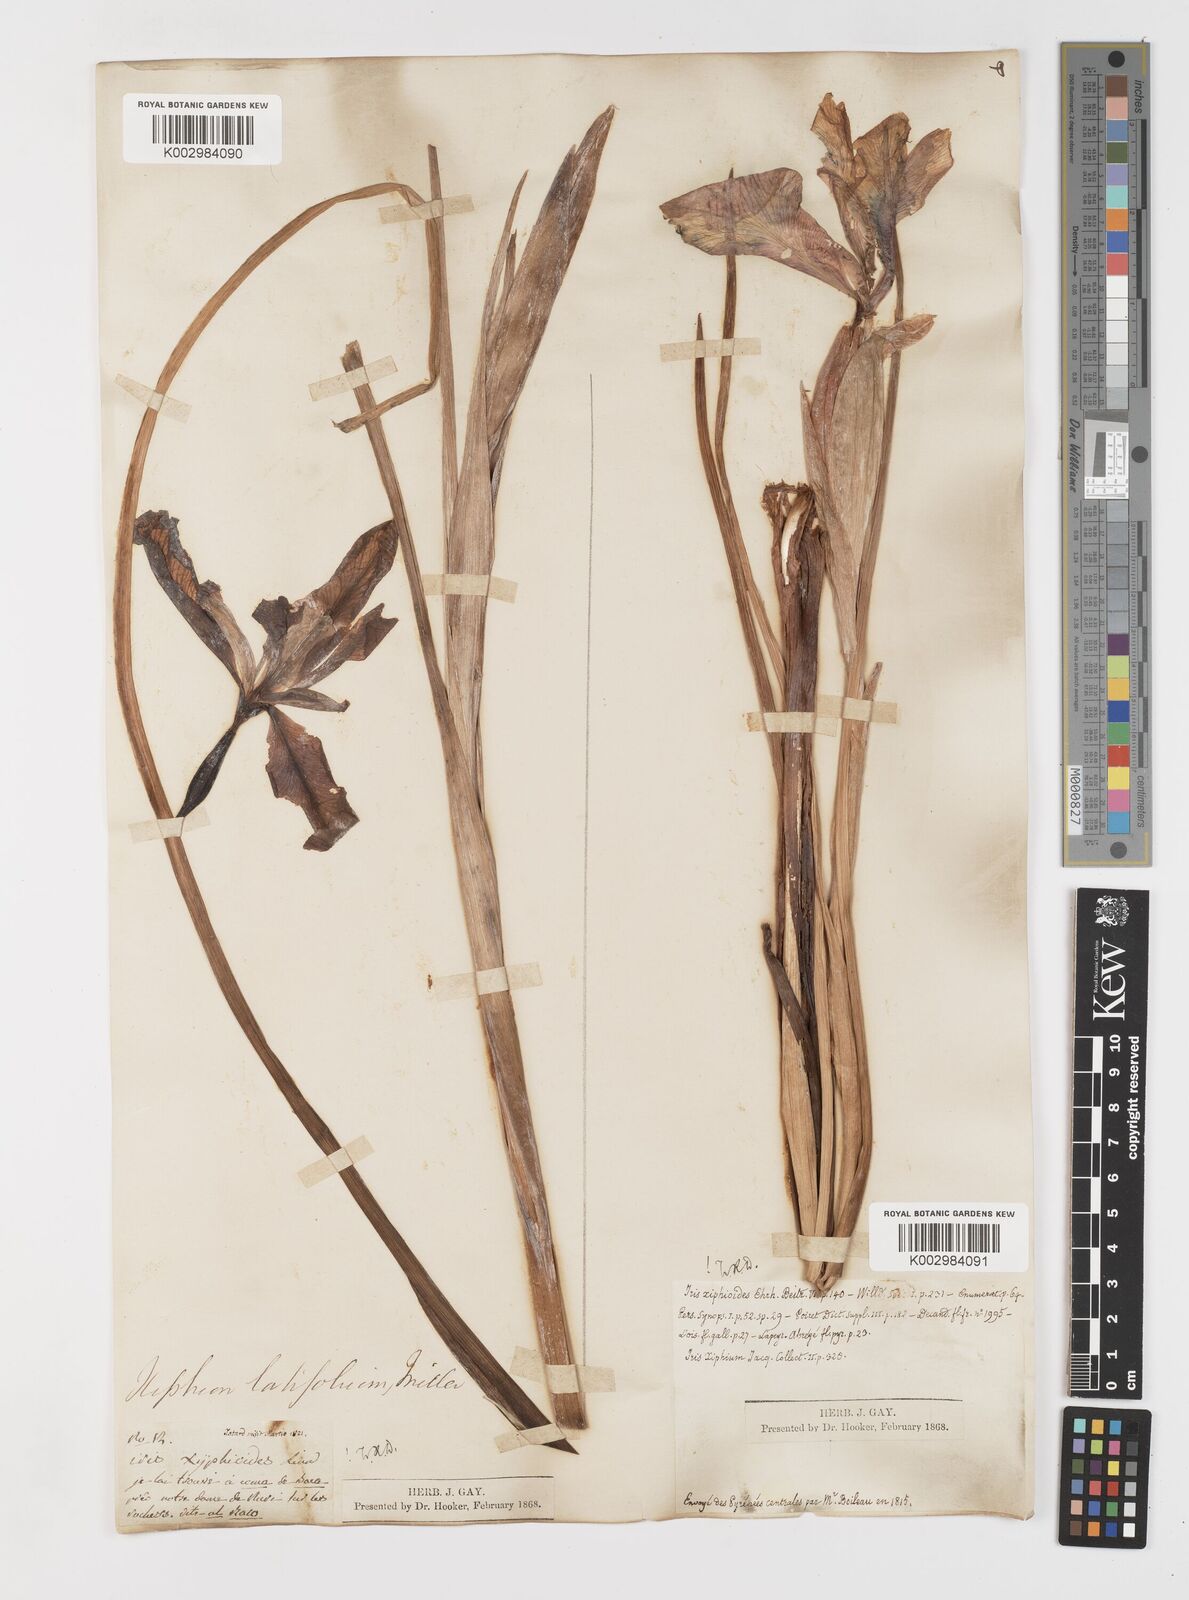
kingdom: Plantae
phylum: Tracheophyta
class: Liliopsida
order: Asparagales
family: Iridaceae
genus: Iris
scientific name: Iris jacquinii
